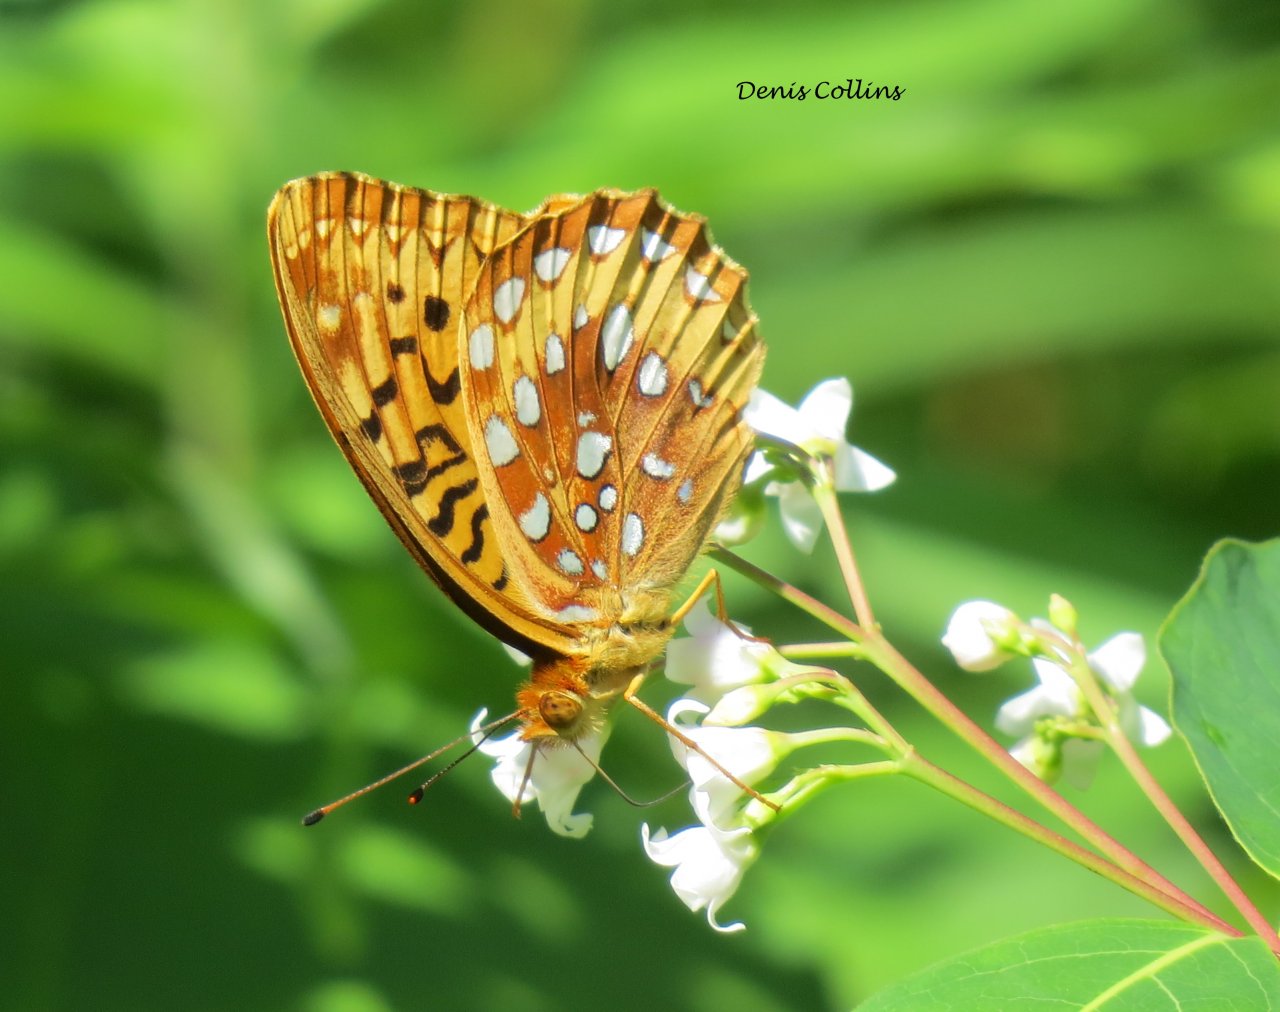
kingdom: Animalia
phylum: Arthropoda
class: Insecta
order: Lepidoptera
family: Nymphalidae
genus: Speyeria
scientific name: Speyeria cybele
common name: Great Spangled Fritillary
